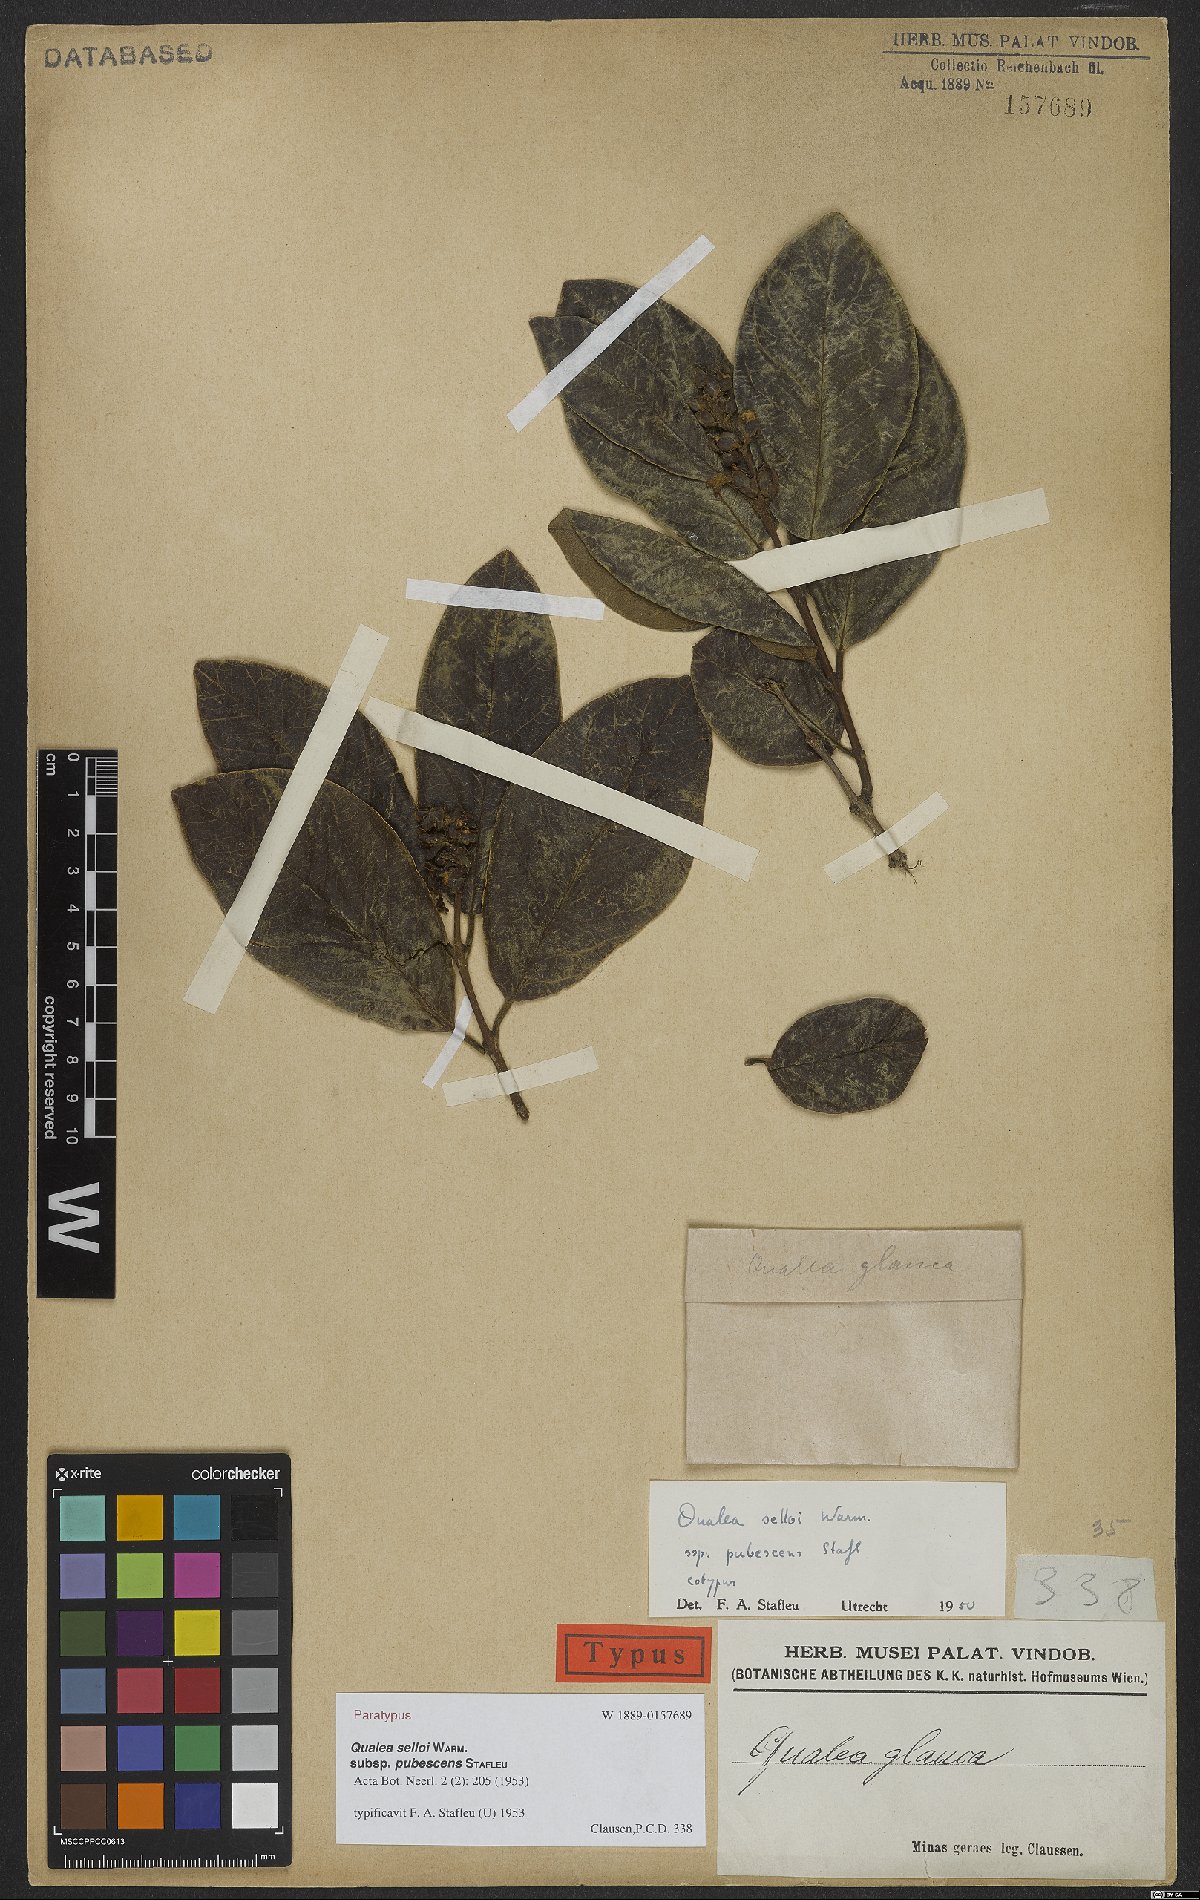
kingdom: Plantae
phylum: Tracheophyta
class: Magnoliopsida
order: Myrtales
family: Vochysiaceae
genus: Qualea
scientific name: Qualea selloi
